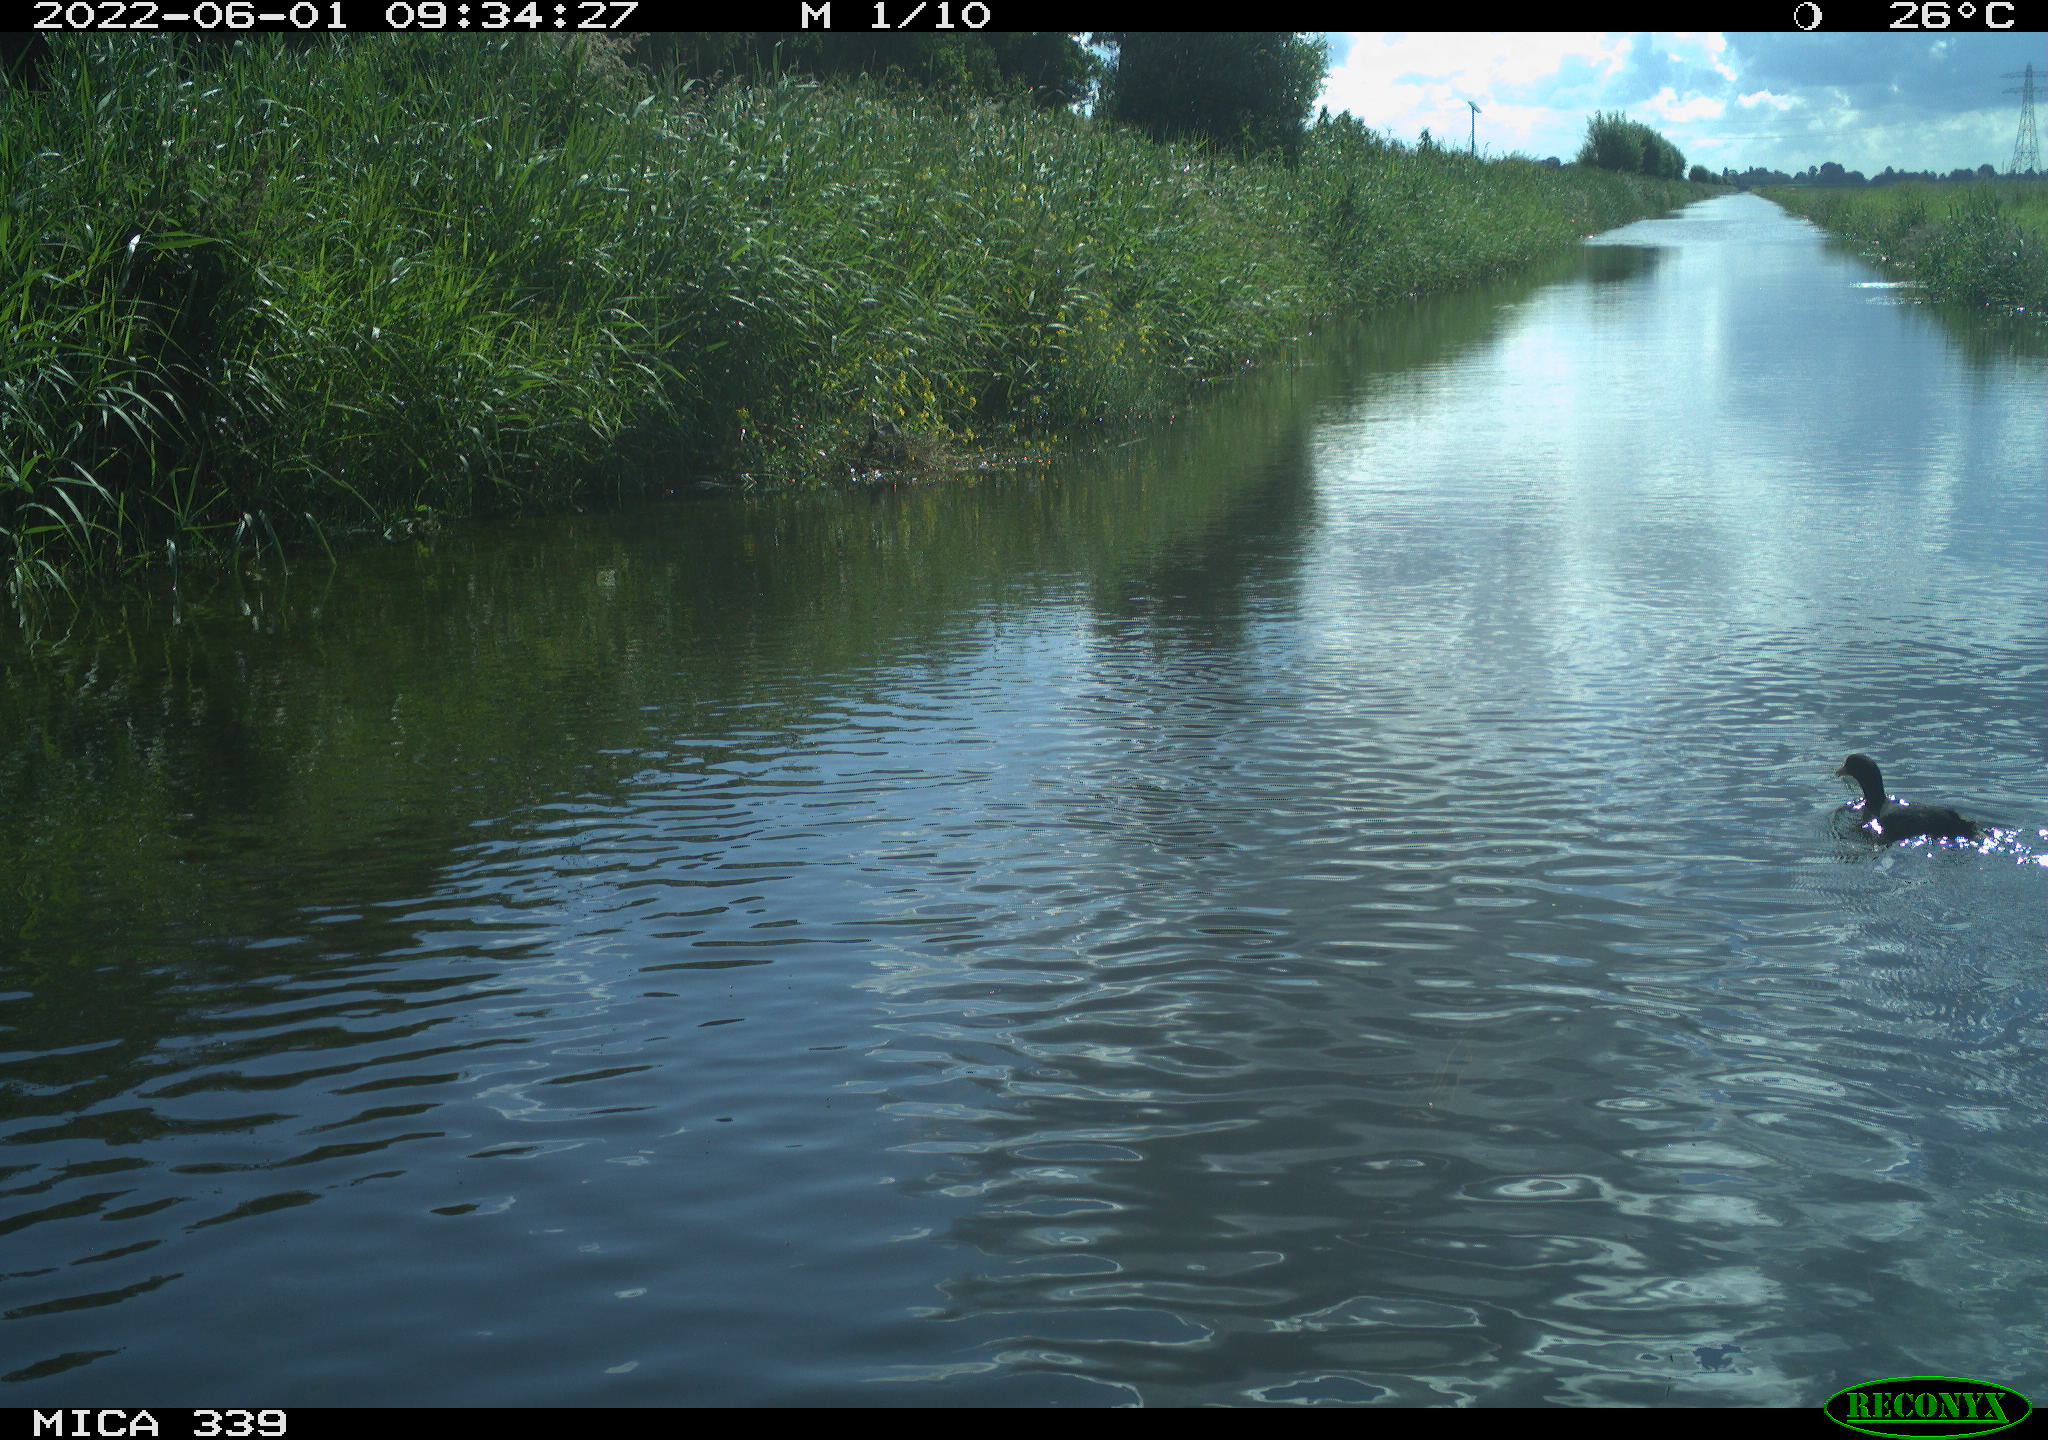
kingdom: Animalia
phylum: Chordata
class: Aves
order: Gruiformes
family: Rallidae
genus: Fulica
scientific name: Fulica atra
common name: Eurasian coot
